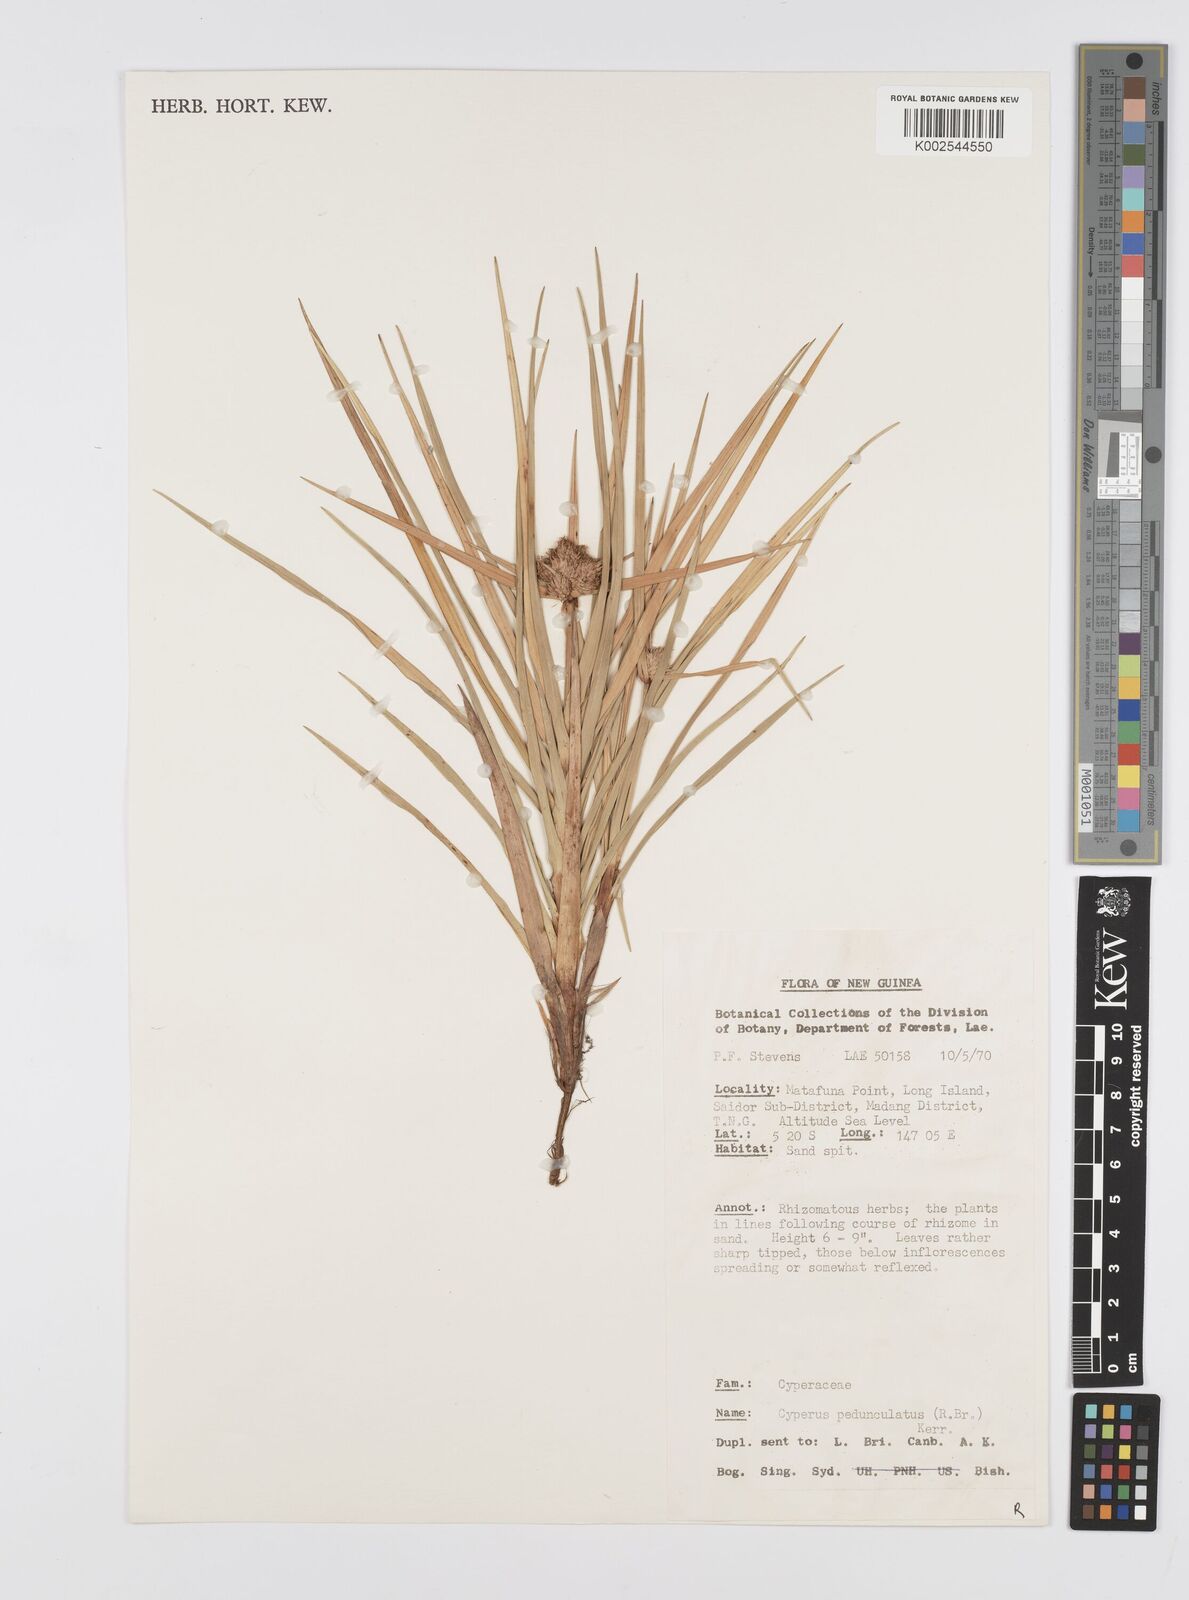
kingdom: Plantae
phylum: Tracheophyta
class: Liliopsida
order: Poales
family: Cyperaceae
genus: Cyperus
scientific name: Cyperus
